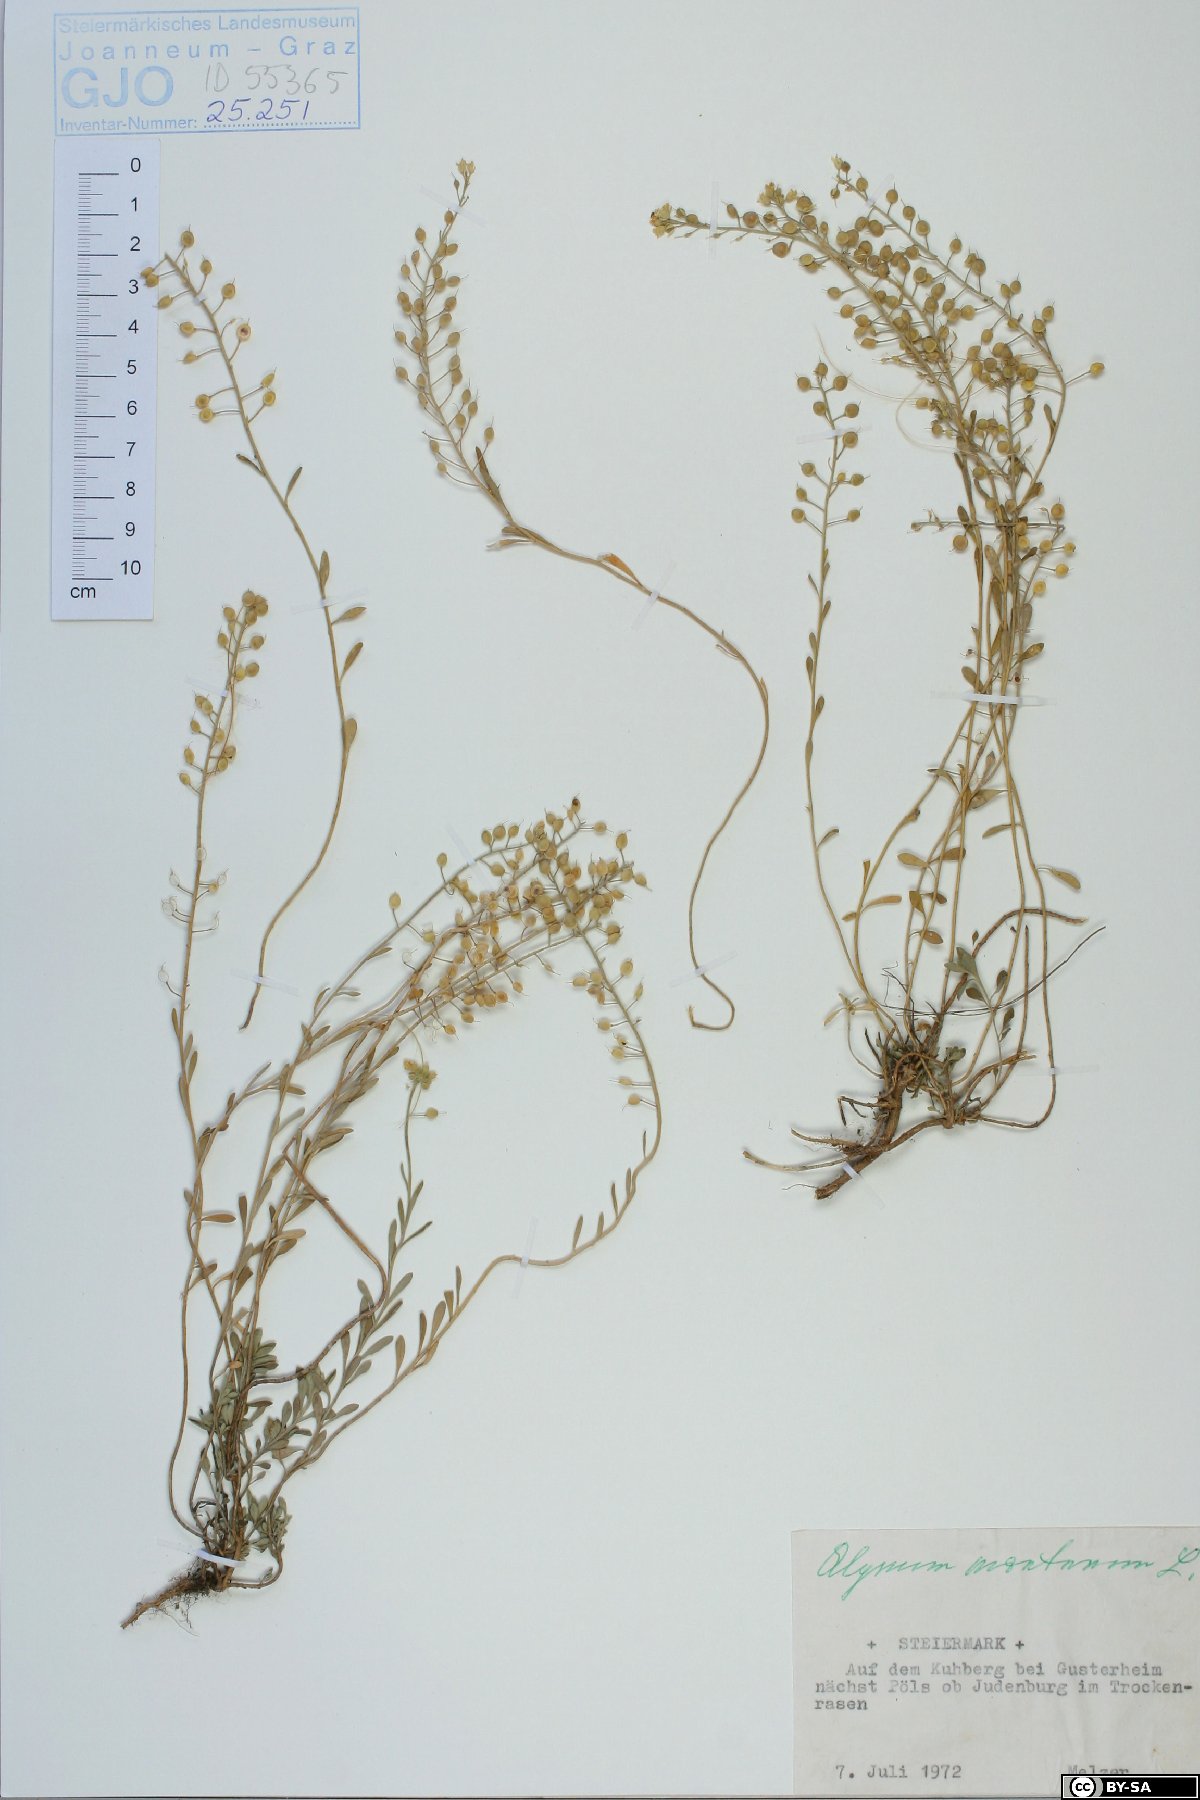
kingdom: Plantae
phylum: Tracheophyta
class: Magnoliopsida
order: Brassicales
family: Brassicaceae
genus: Alyssum
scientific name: Alyssum montanum
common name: Mountain alison
